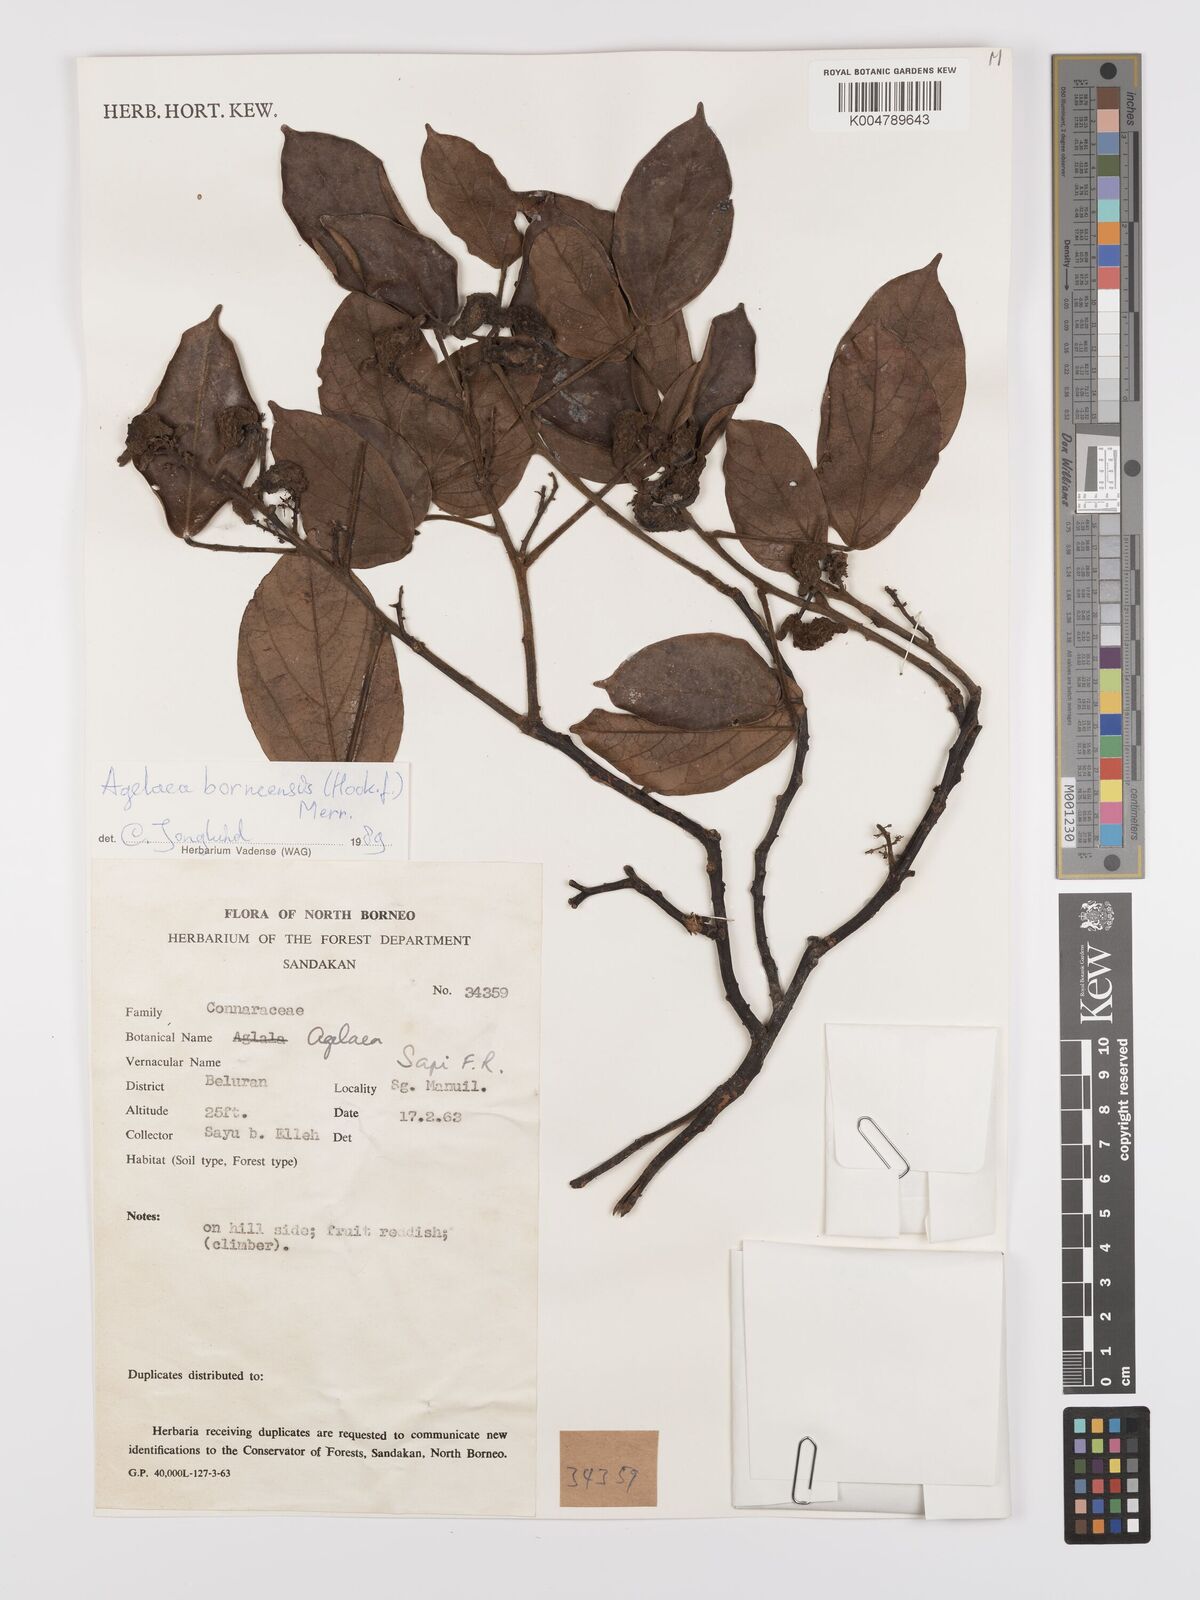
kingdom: Plantae
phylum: Tracheophyta
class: Magnoliopsida
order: Oxalidales
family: Connaraceae
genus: Agelaea
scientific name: Agelaea borneensis
